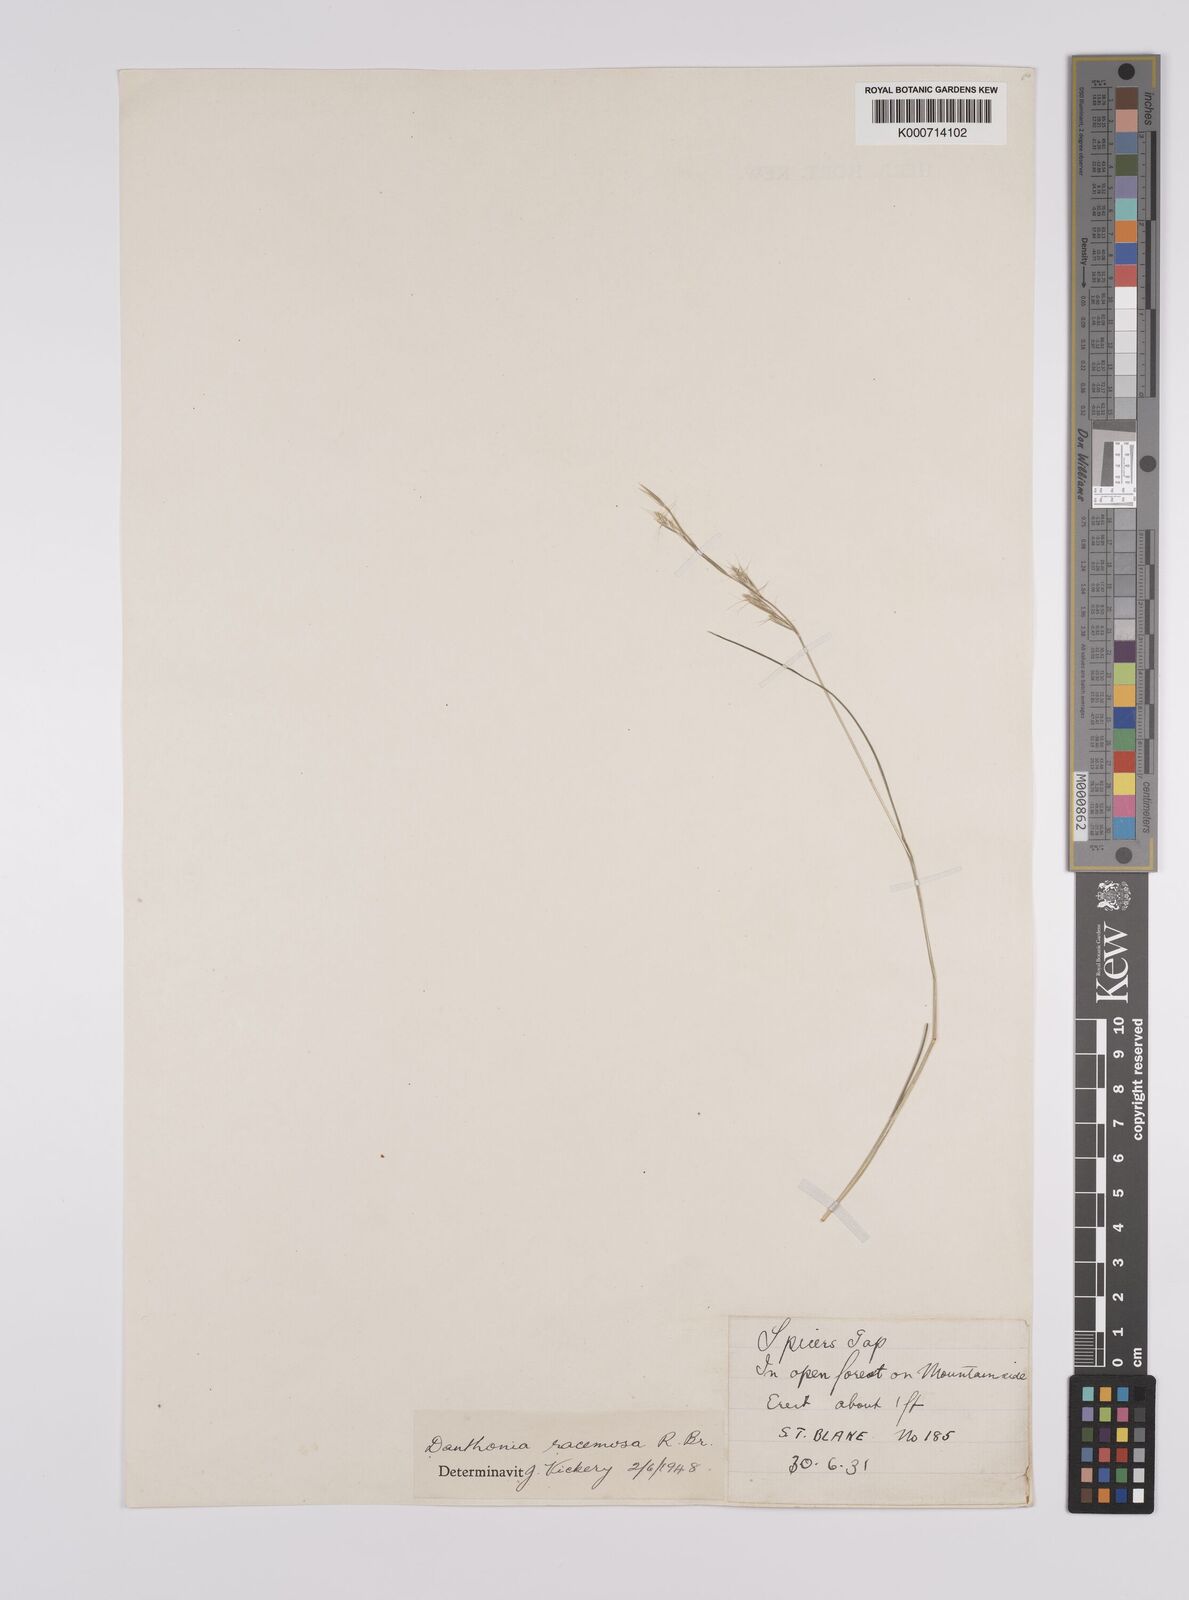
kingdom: Plantae
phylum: Tracheophyta
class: Liliopsida
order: Poales
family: Poaceae
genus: Rytidosperma
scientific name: Rytidosperma racemosum
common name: Wallaby-grass
